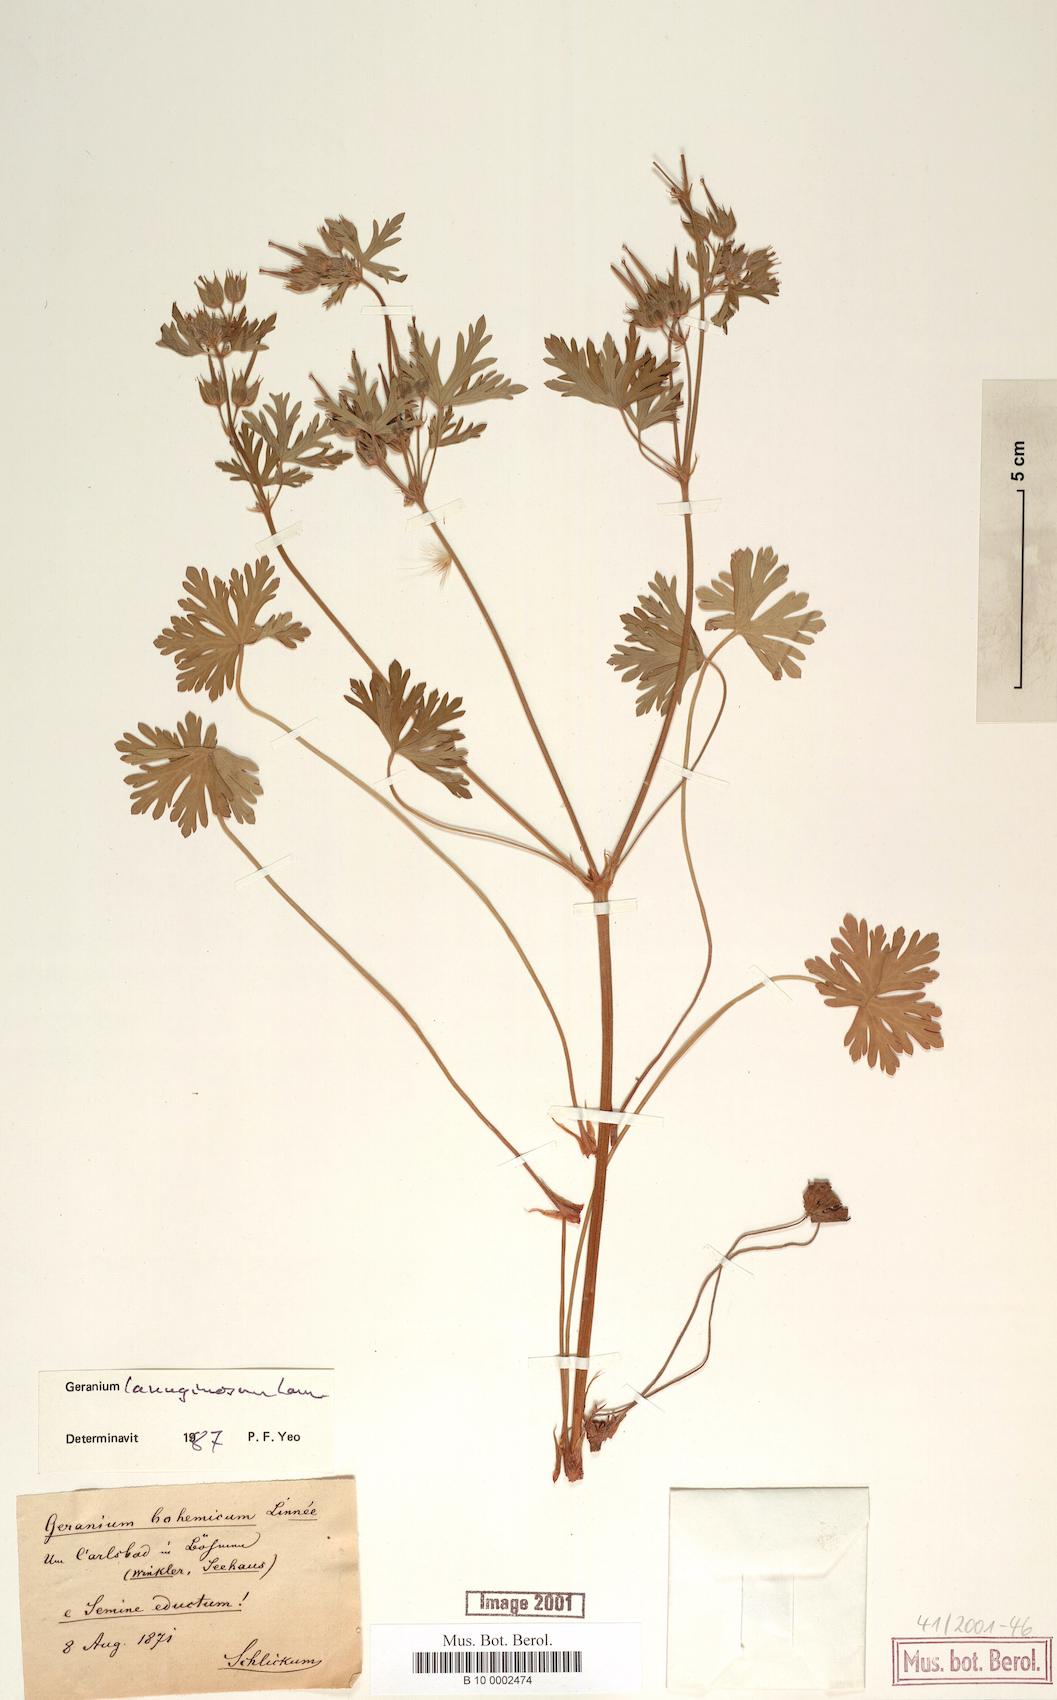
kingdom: Plantae
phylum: Tracheophyta
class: Magnoliopsida
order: Geraniales
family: Geraniaceae
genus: Geranium
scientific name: Geranium carolinianum
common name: Carolina crane's-bill
